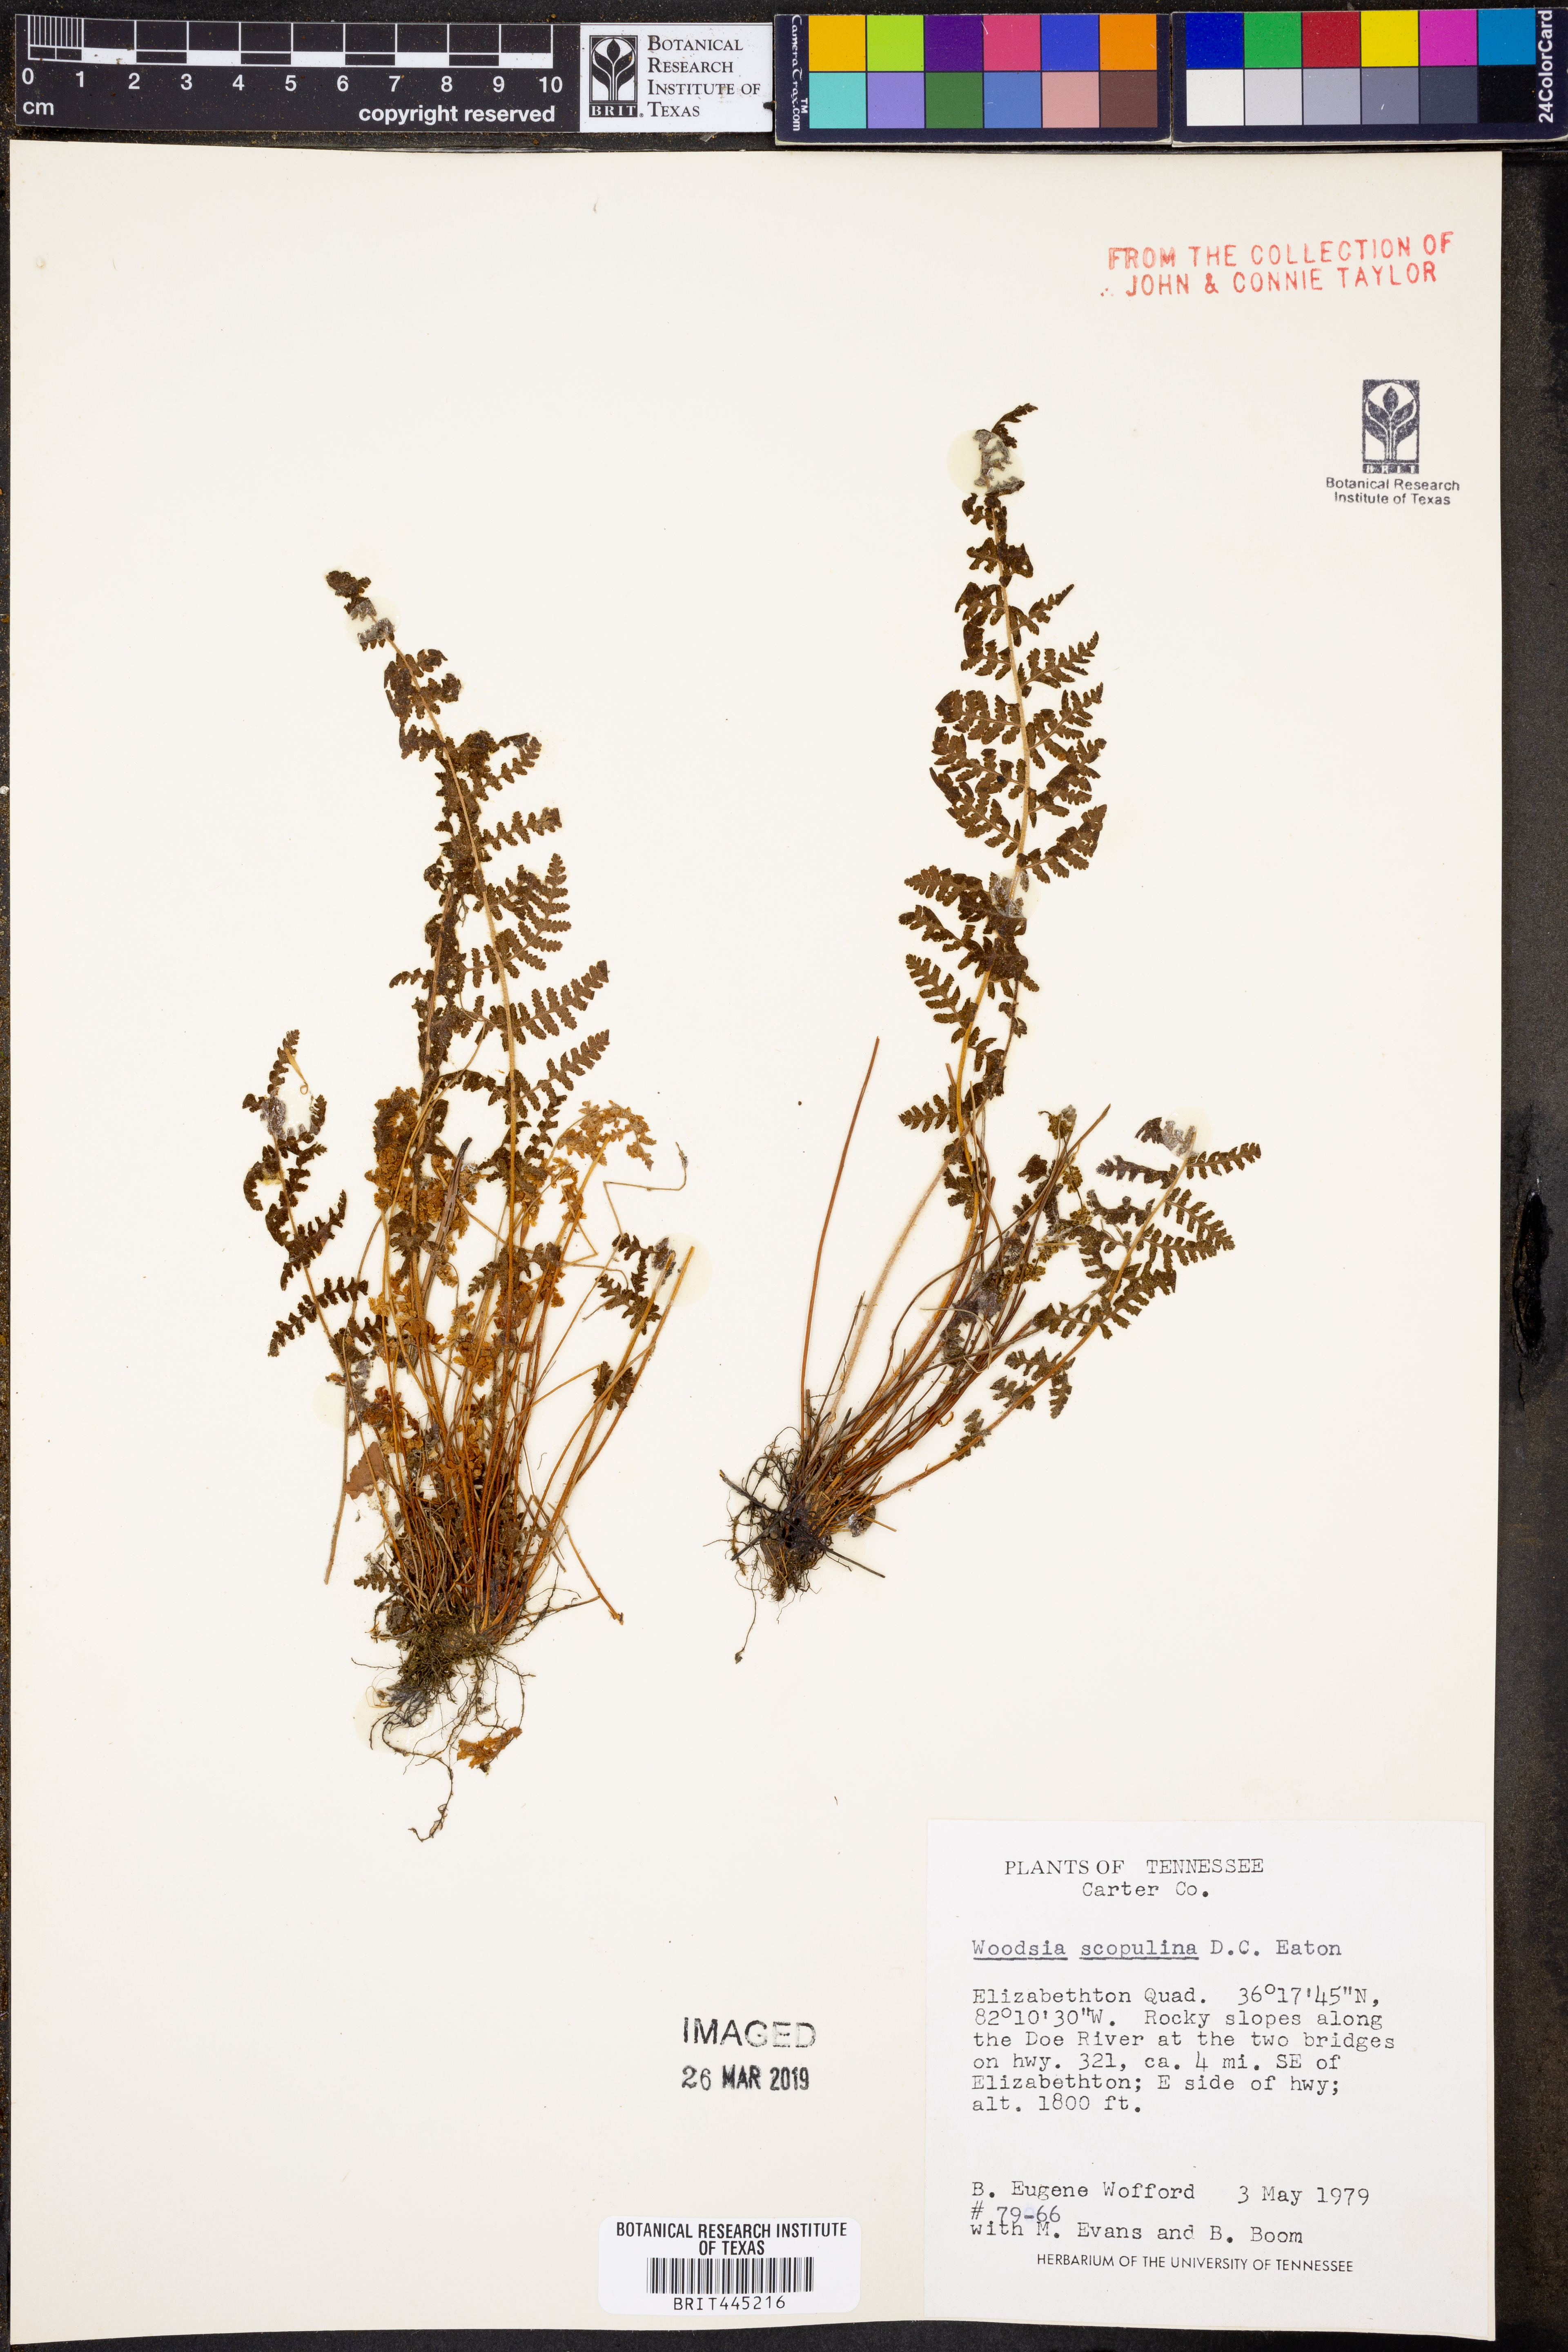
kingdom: Plantae
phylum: Tracheophyta
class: Polypodiopsida
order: Polypodiales
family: Woodsiaceae
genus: Physematium
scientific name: Physematium scopulinum
